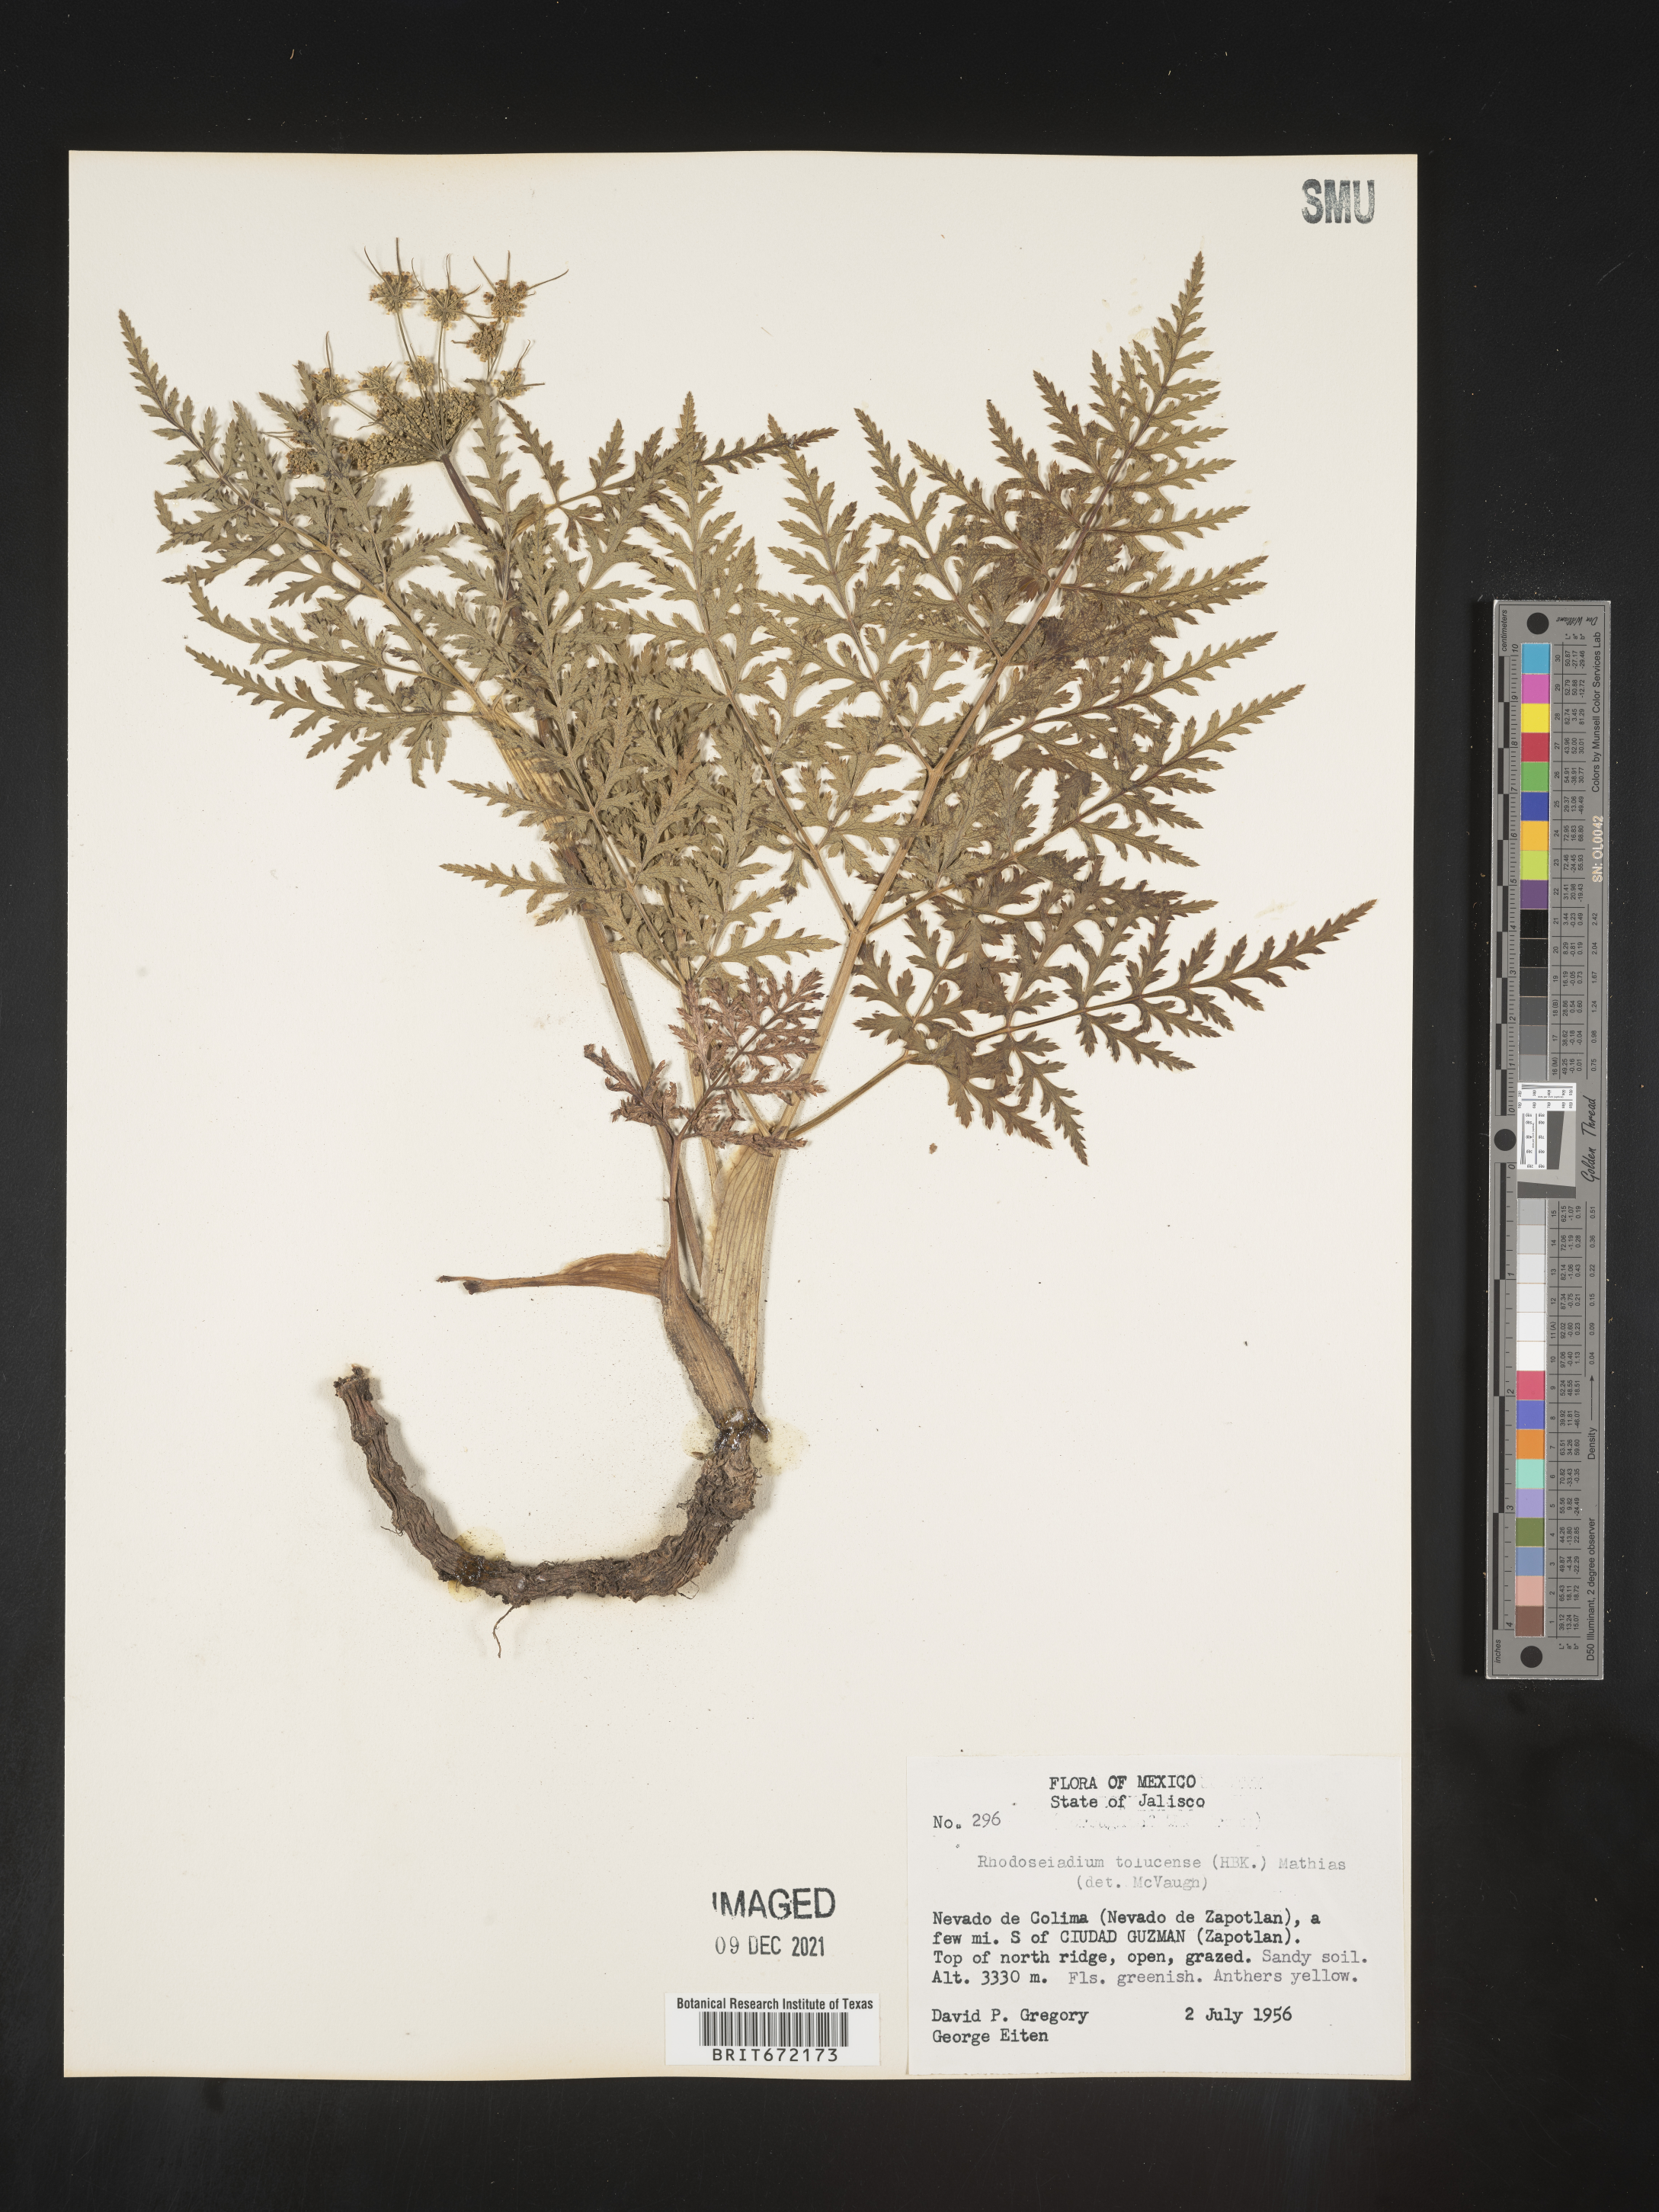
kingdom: Plantae
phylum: Tracheophyta
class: Magnoliopsida
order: Apiales
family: Apiaceae
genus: Rhodosciadium
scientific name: Rhodosciadium
